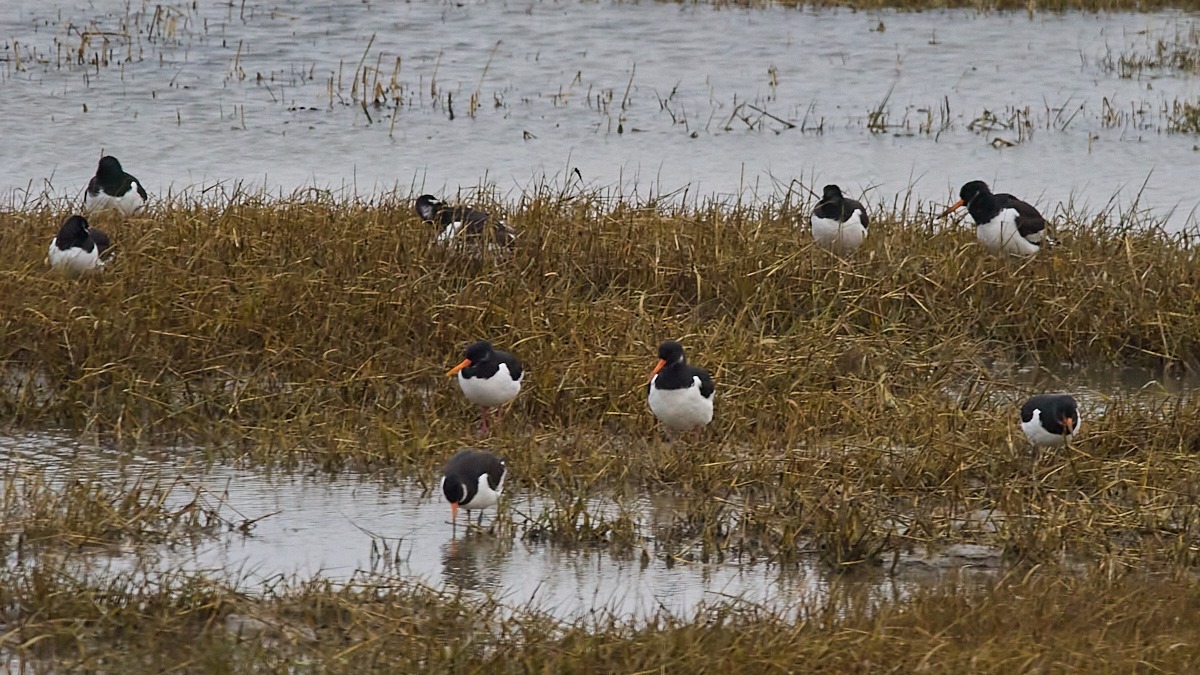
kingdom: Animalia
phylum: Chordata
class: Aves
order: Charadriiformes
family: Haematopodidae
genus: Haematopus
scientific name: Haematopus ostralegus
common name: Strandskade
